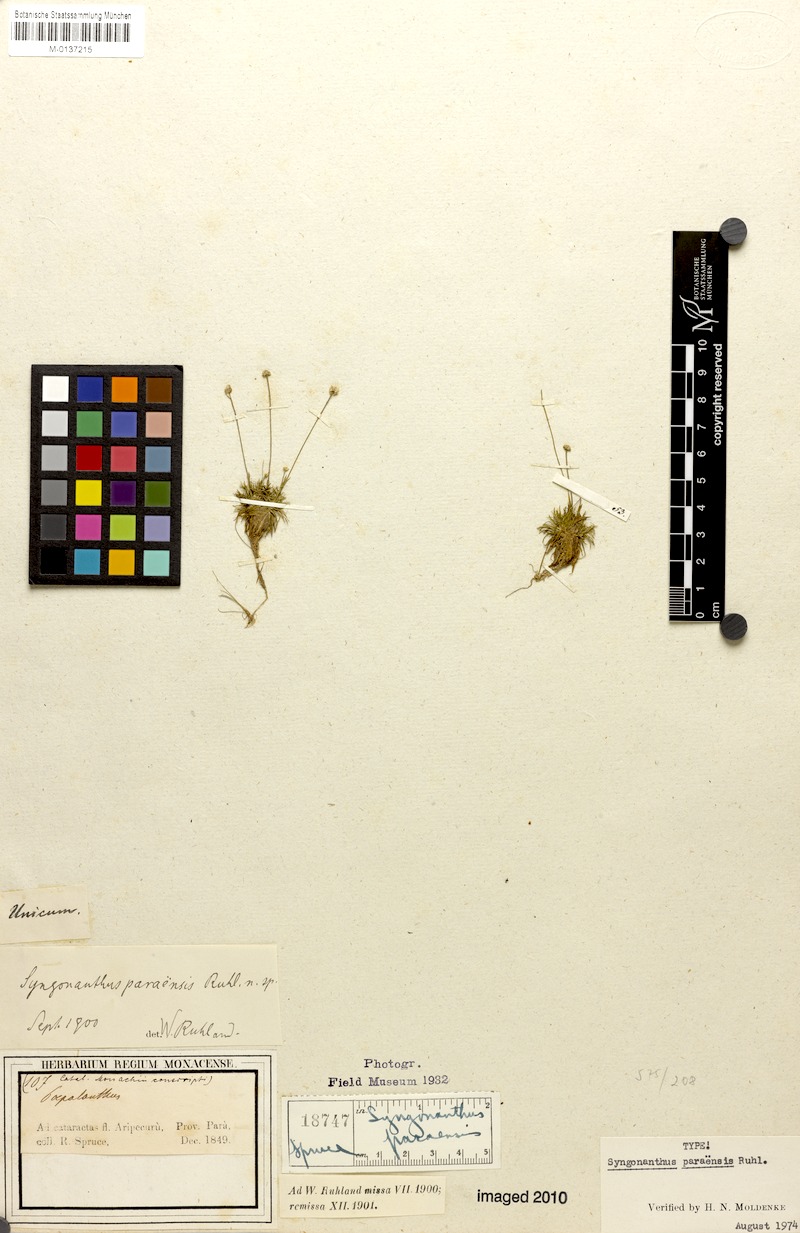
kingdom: Plantae
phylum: Tracheophyta
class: Liliopsida
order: Poales
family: Eriocaulaceae
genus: Syngonanthus
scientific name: Syngonanthus anomalus
